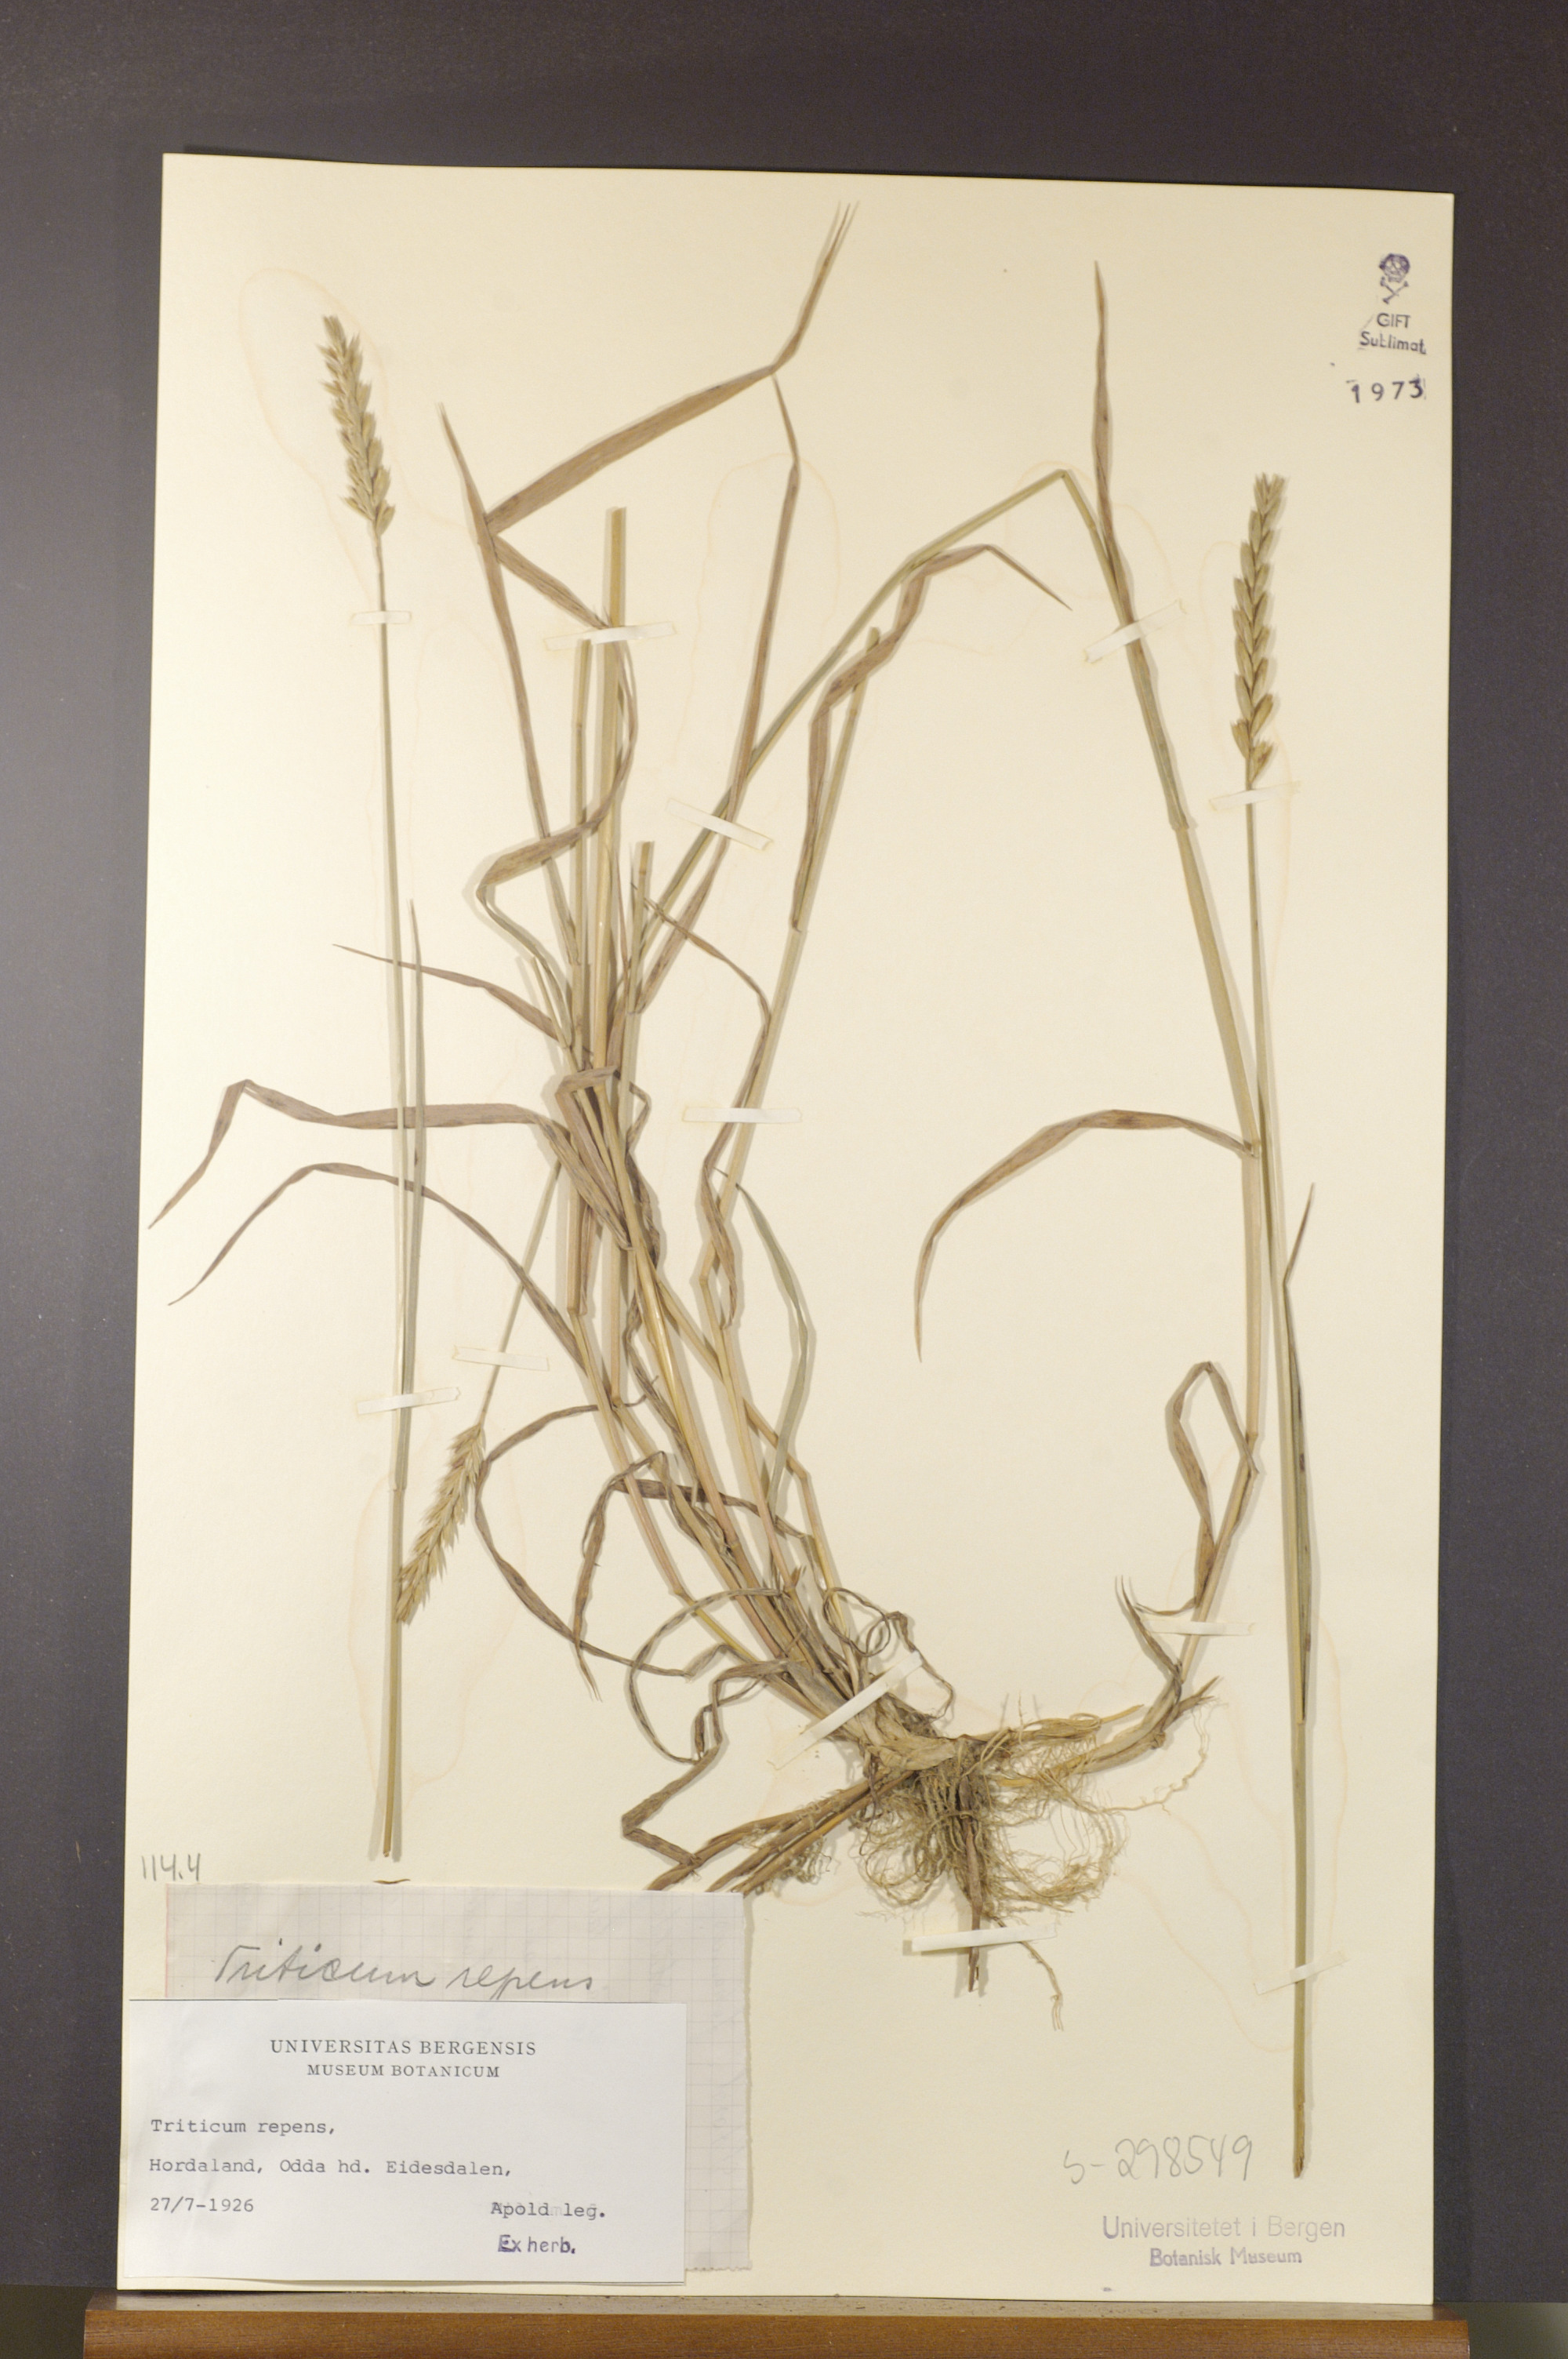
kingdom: Plantae
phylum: Tracheophyta
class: Liliopsida
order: Poales
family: Poaceae
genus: Elymus
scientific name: Elymus repens
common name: Quackgrass
